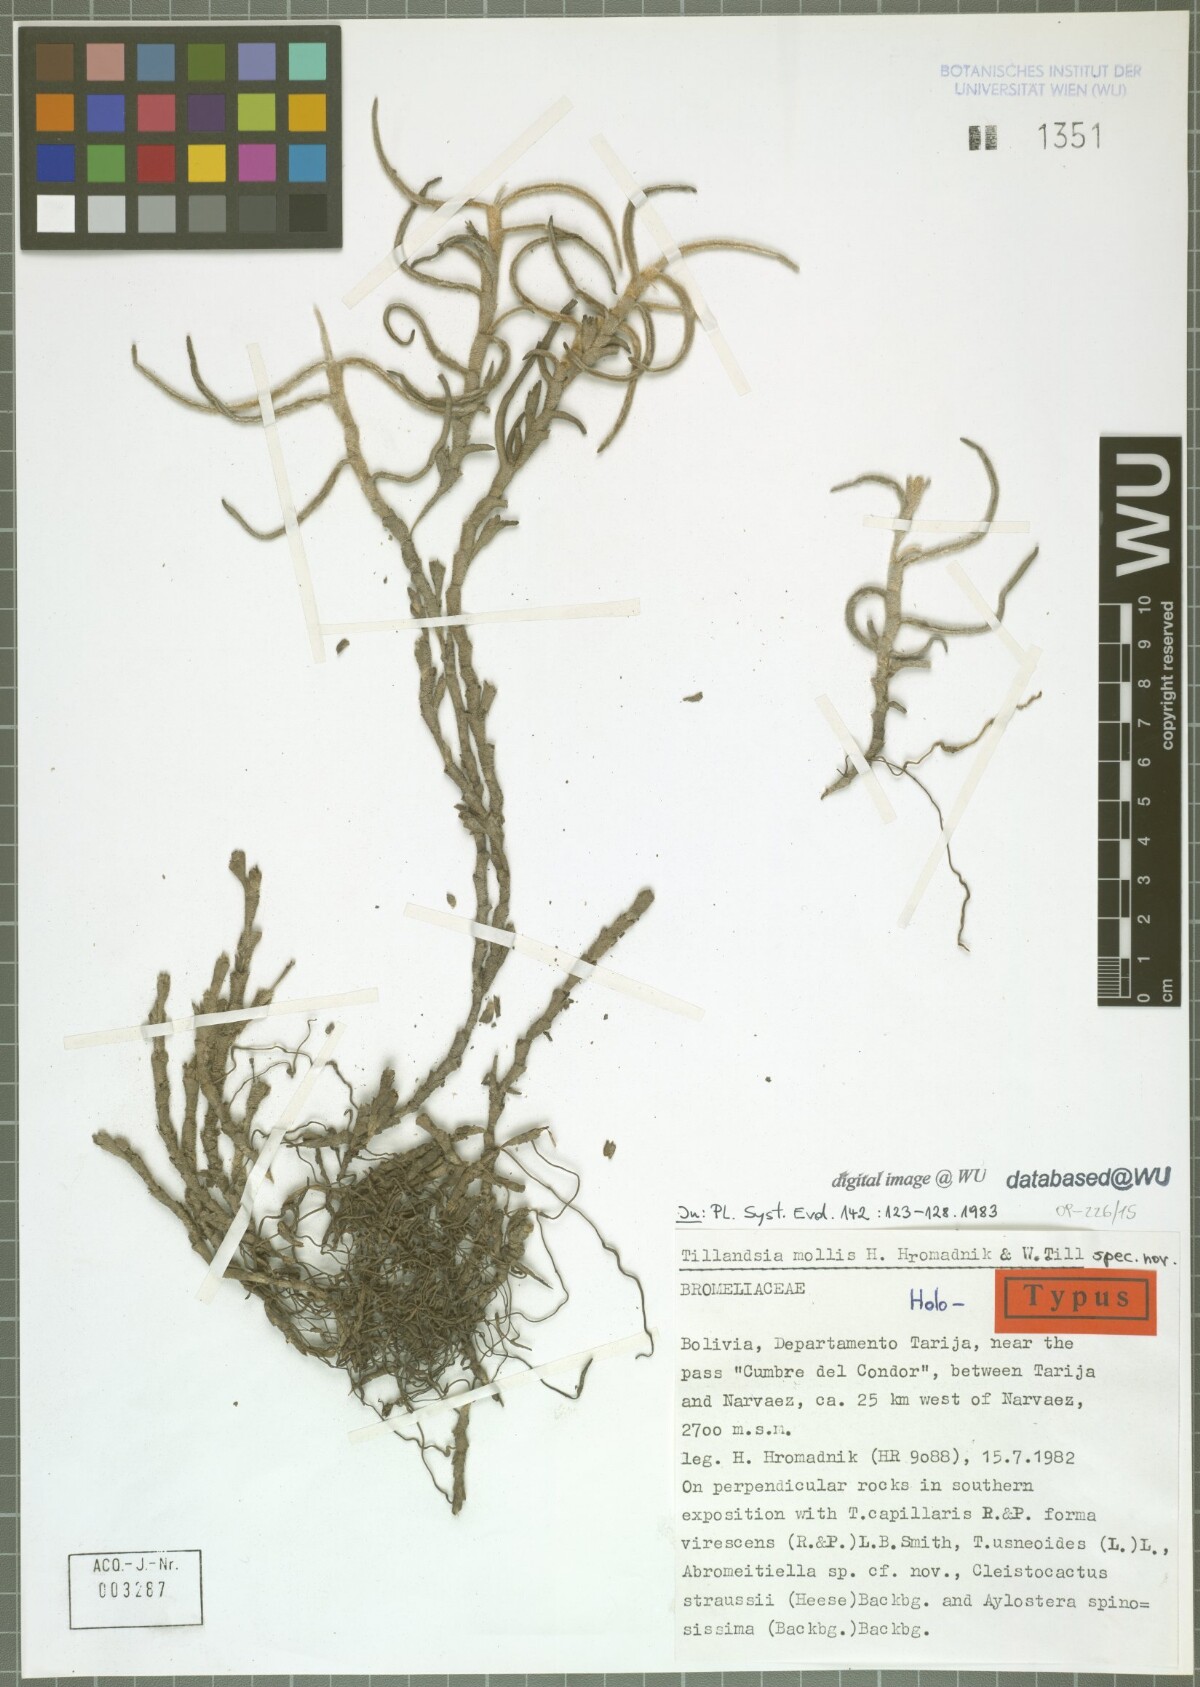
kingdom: Plantae
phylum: Tracheophyta
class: Liliopsida
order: Poales
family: Bromeliaceae
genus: Tillandsia
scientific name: Tillandsia mollis
